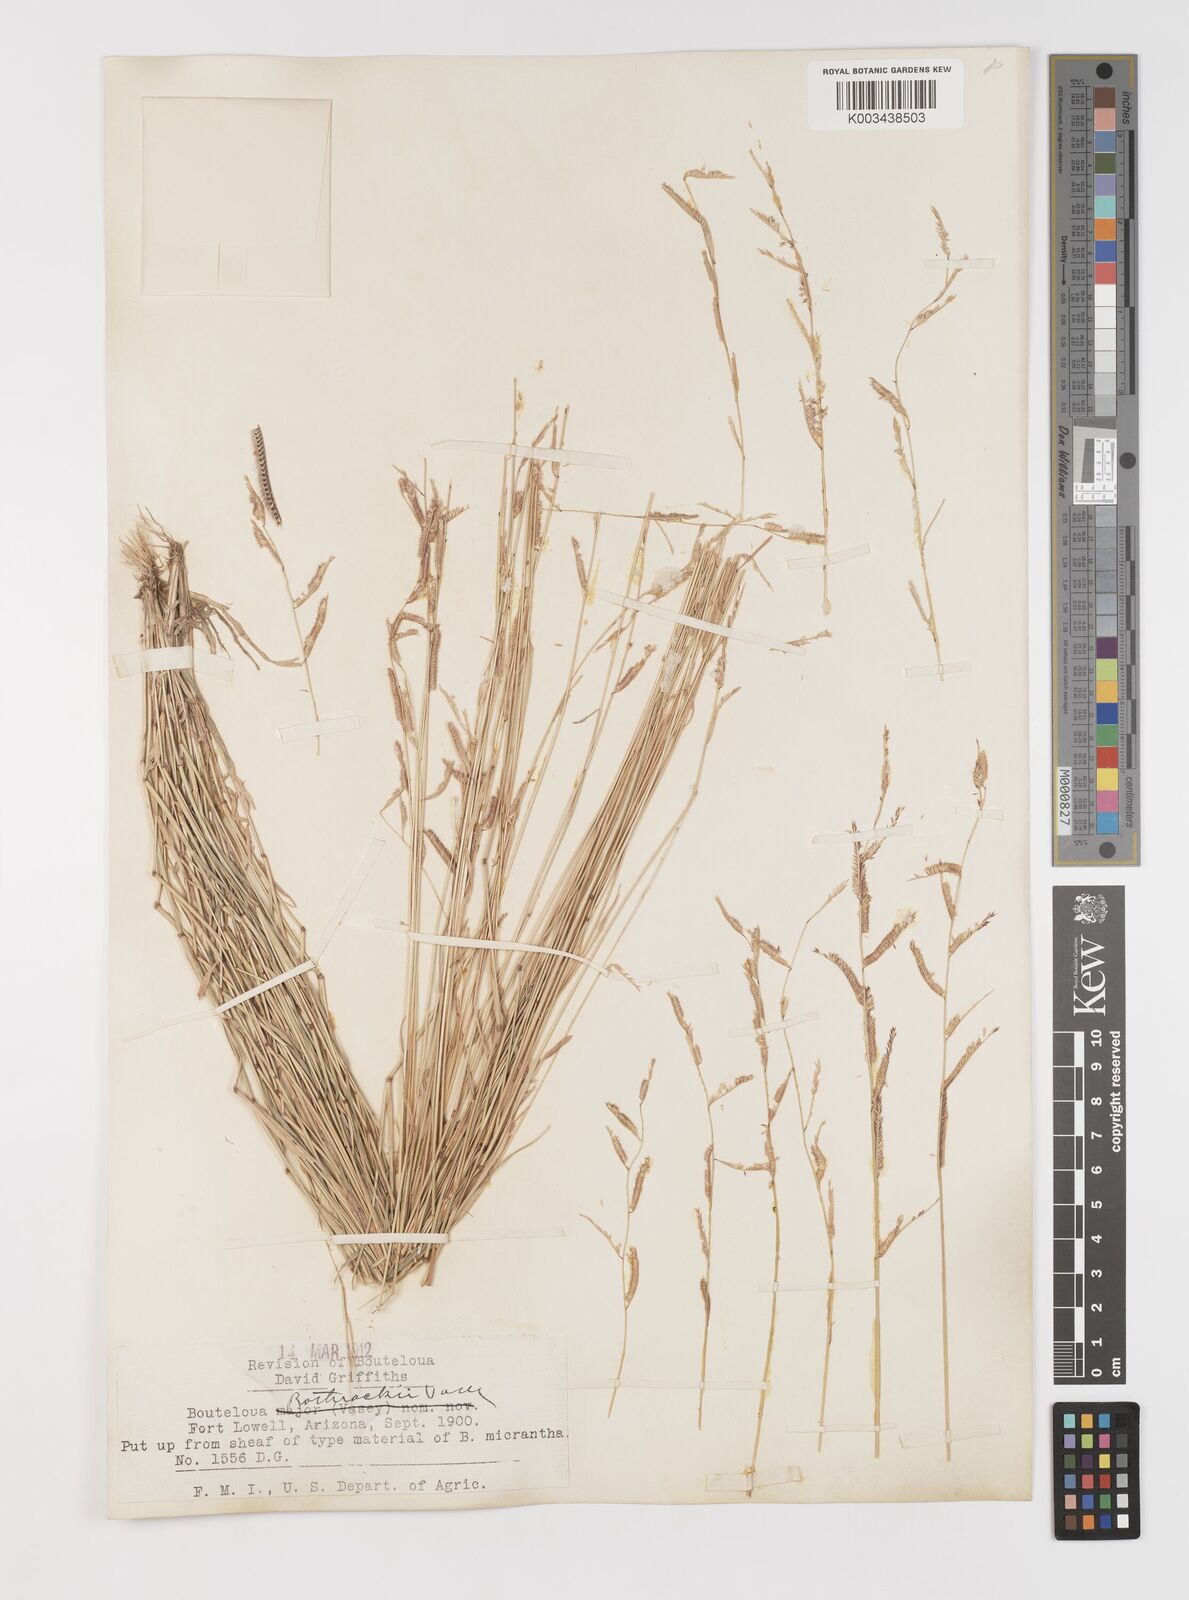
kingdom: Plantae
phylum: Tracheophyta
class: Liliopsida
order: Poales
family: Poaceae
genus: Bouteloua
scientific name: Bouteloua
